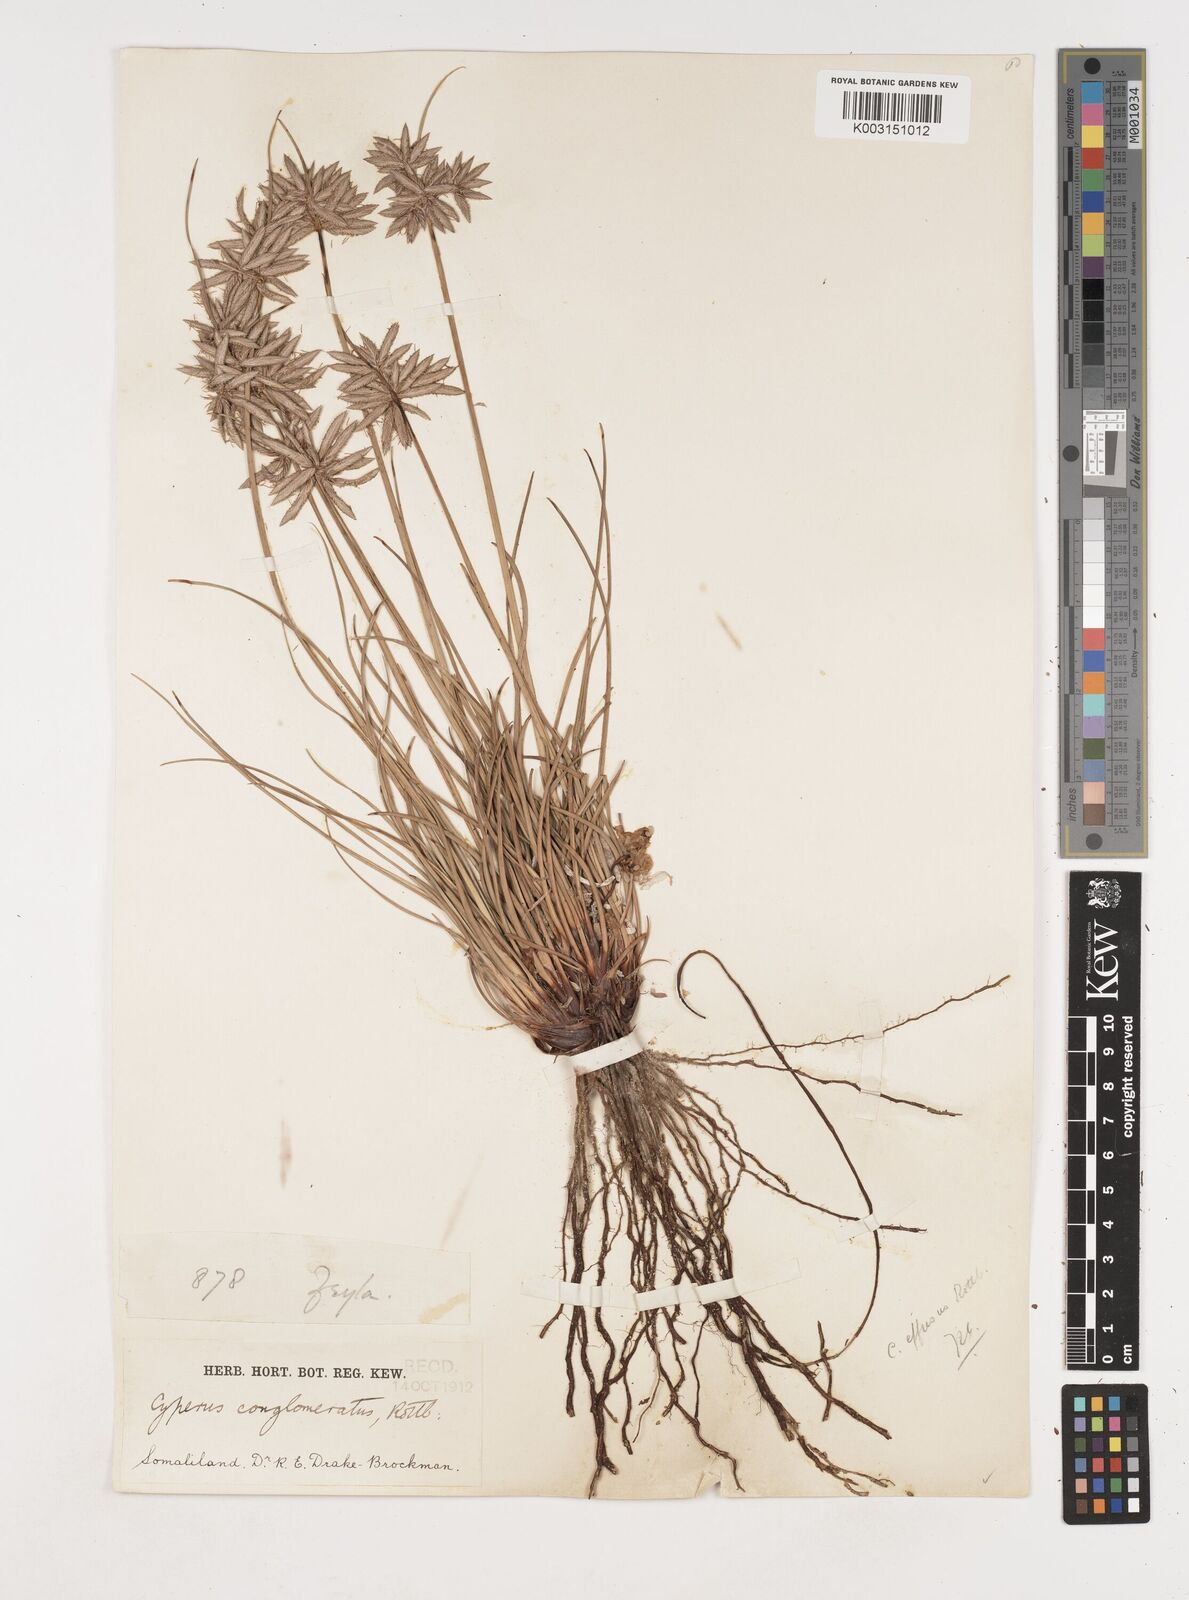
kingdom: Plantae
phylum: Tracheophyta
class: Liliopsida
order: Poales
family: Cyperaceae
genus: Cyperus
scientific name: Cyperus conglomeratus
